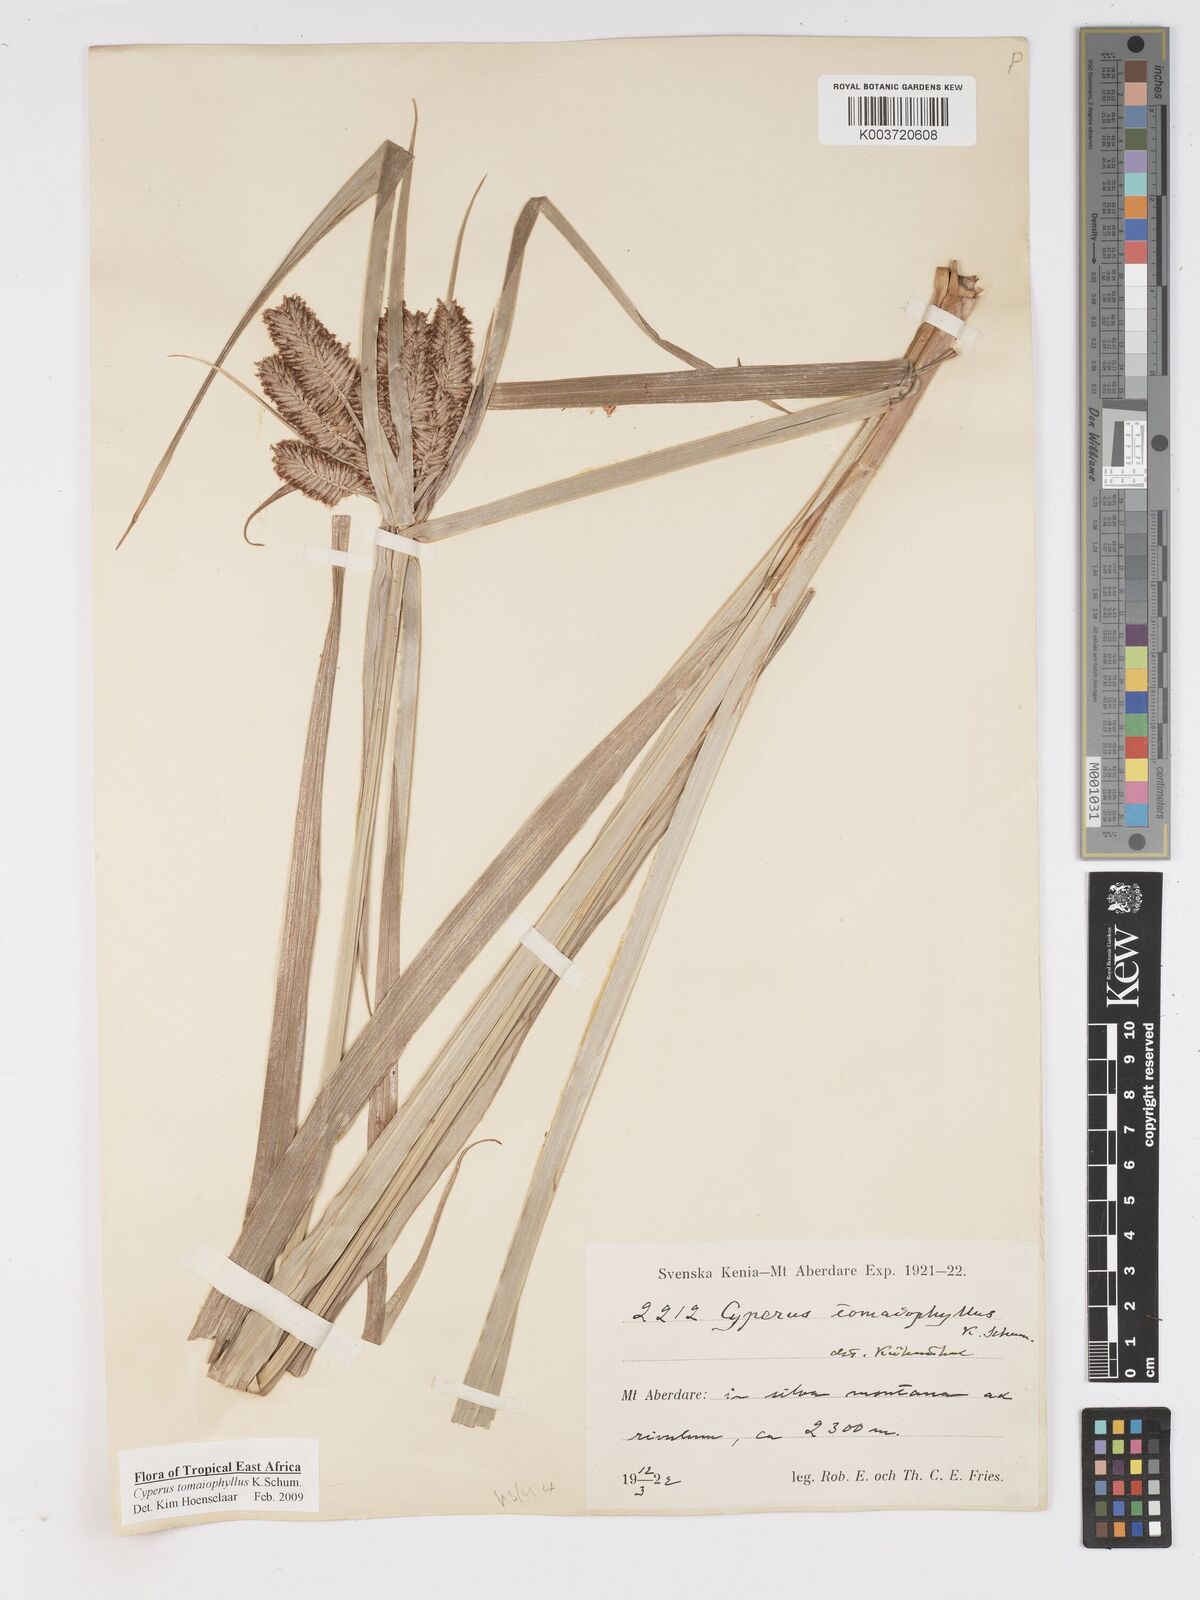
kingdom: Plantae
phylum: Tracheophyta
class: Liliopsida
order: Poales
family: Cyperaceae
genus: Cyperus
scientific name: Cyperus tomaiophyllus
